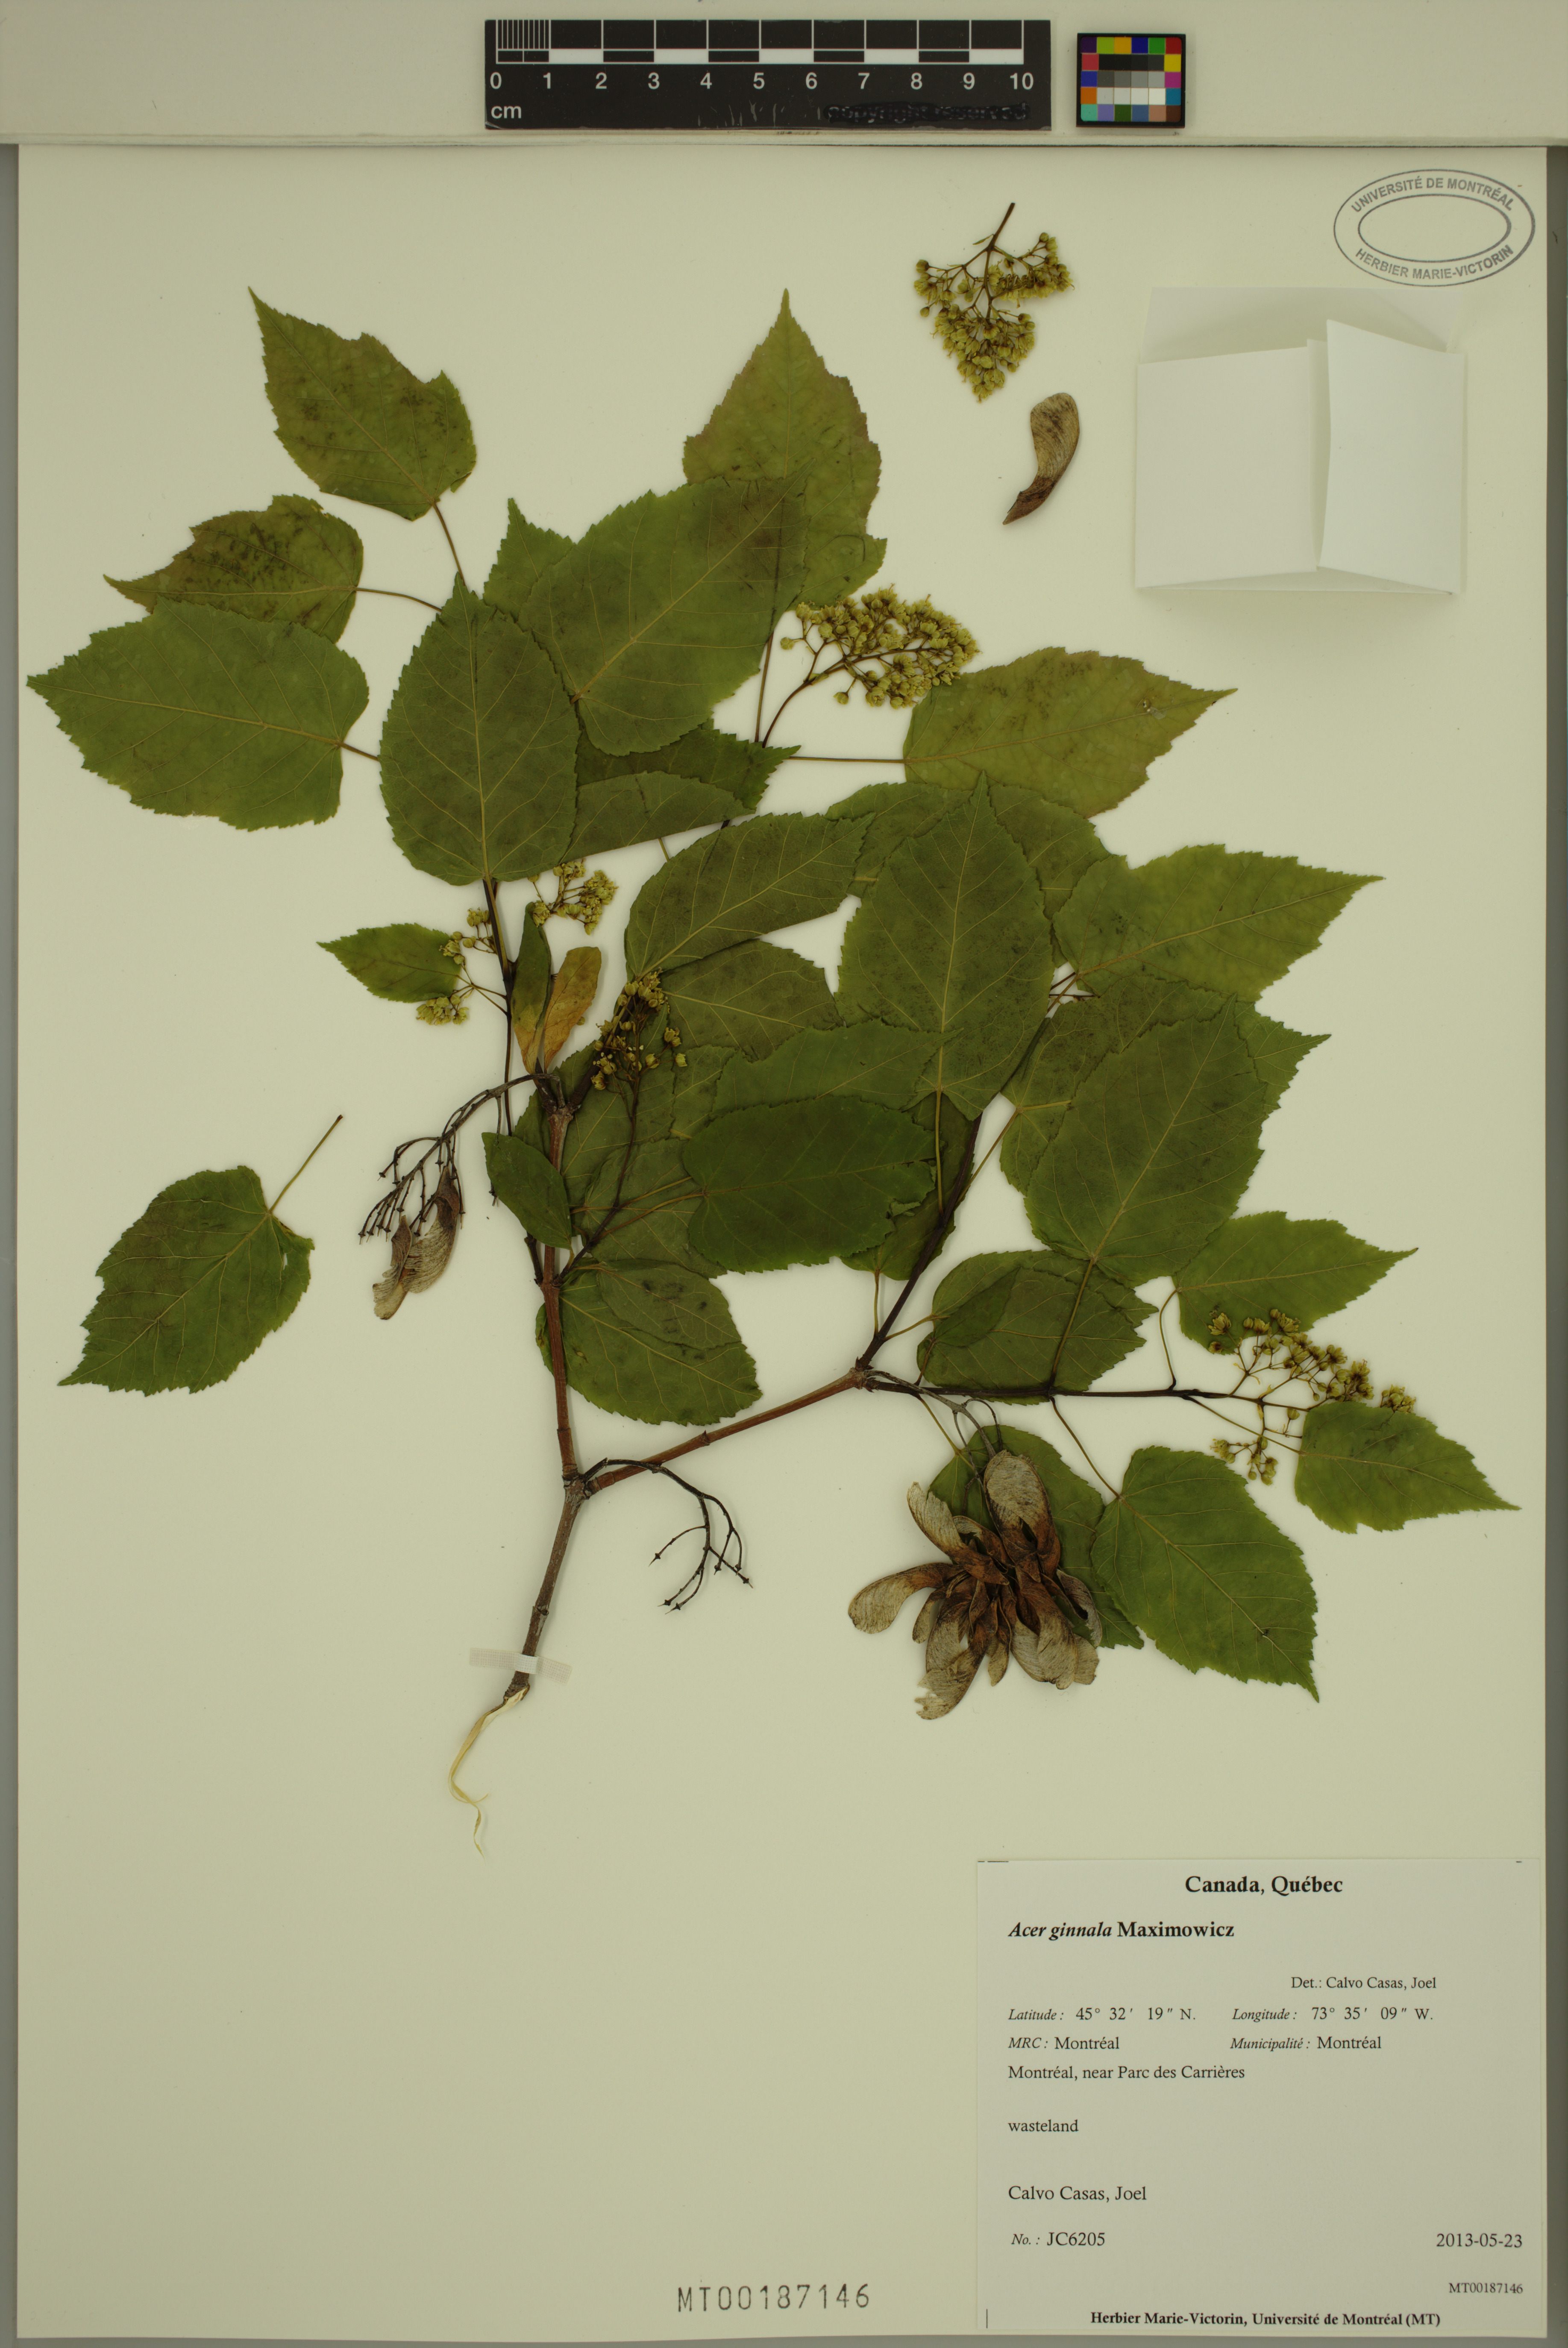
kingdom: Plantae
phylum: Tracheophyta
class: Magnoliopsida
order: Sapindales
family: Sapindaceae
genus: Acer
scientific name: Acer tataricum
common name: Tartar maple
